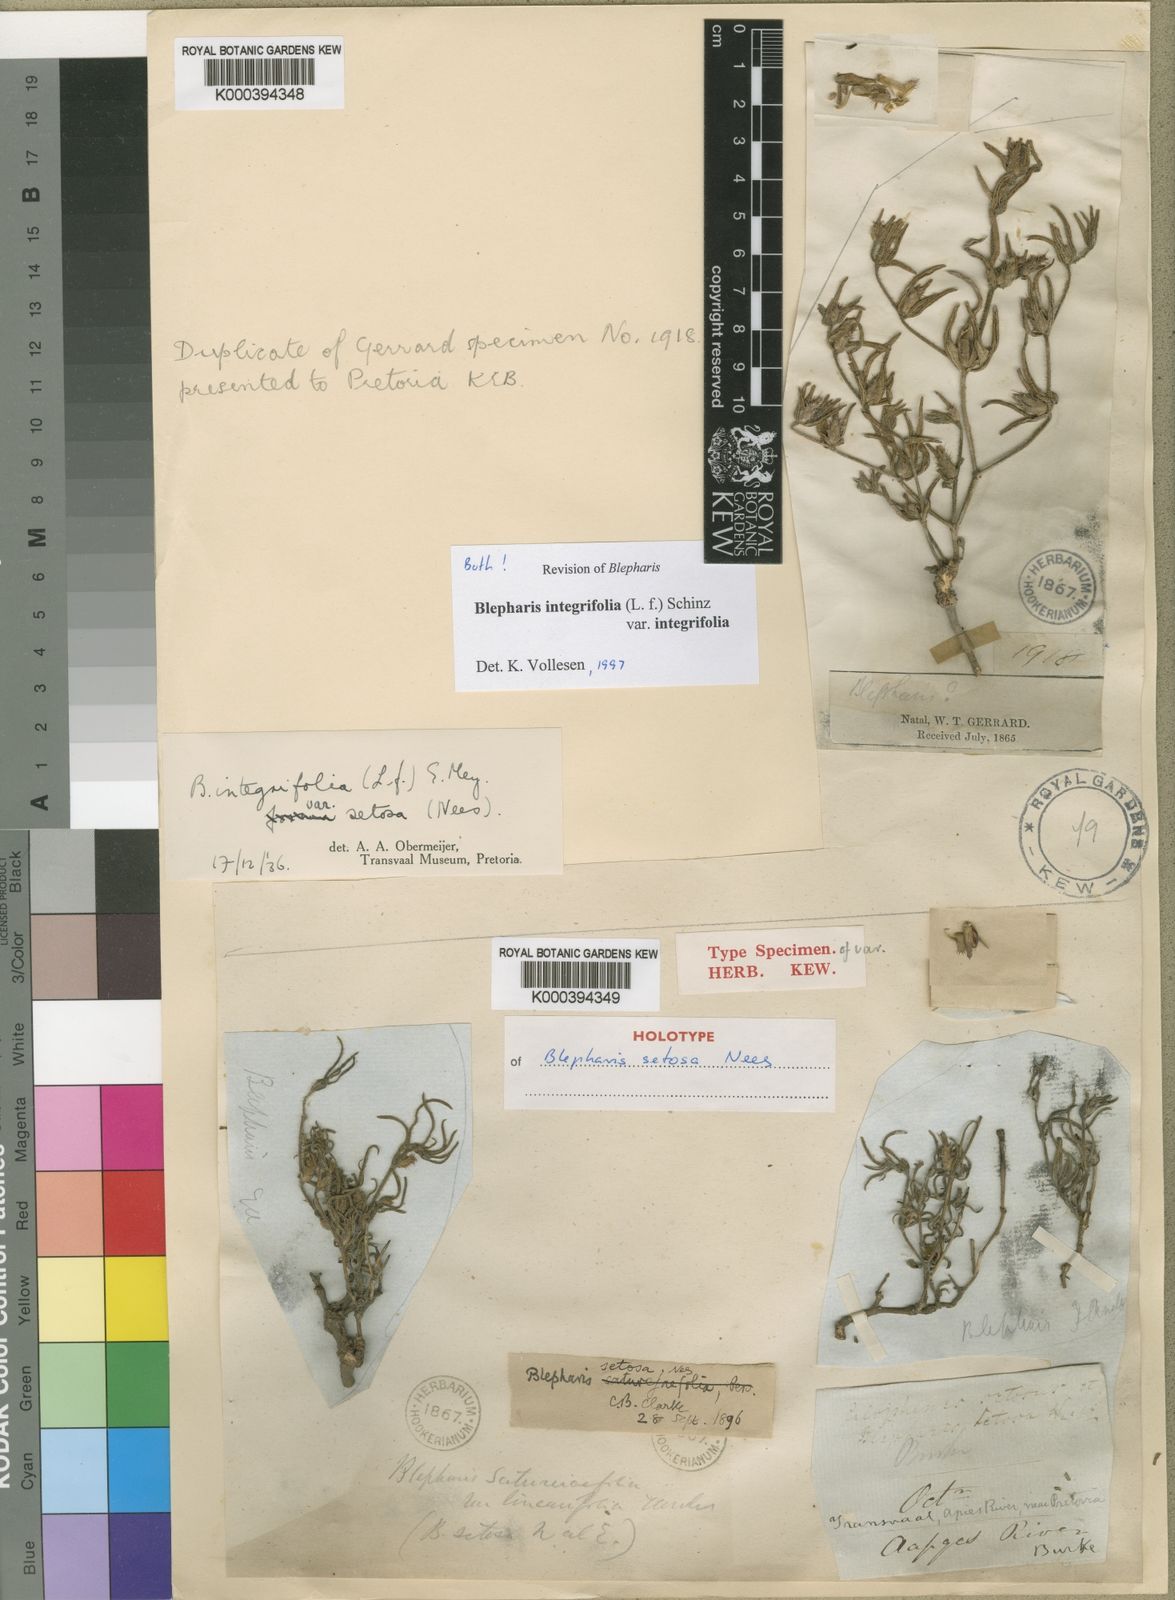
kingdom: Plantae
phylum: Tracheophyta
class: Magnoliopsida
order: Lamiales
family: Acanthaceae
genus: Blepharis
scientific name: Blepharis integrifolia
